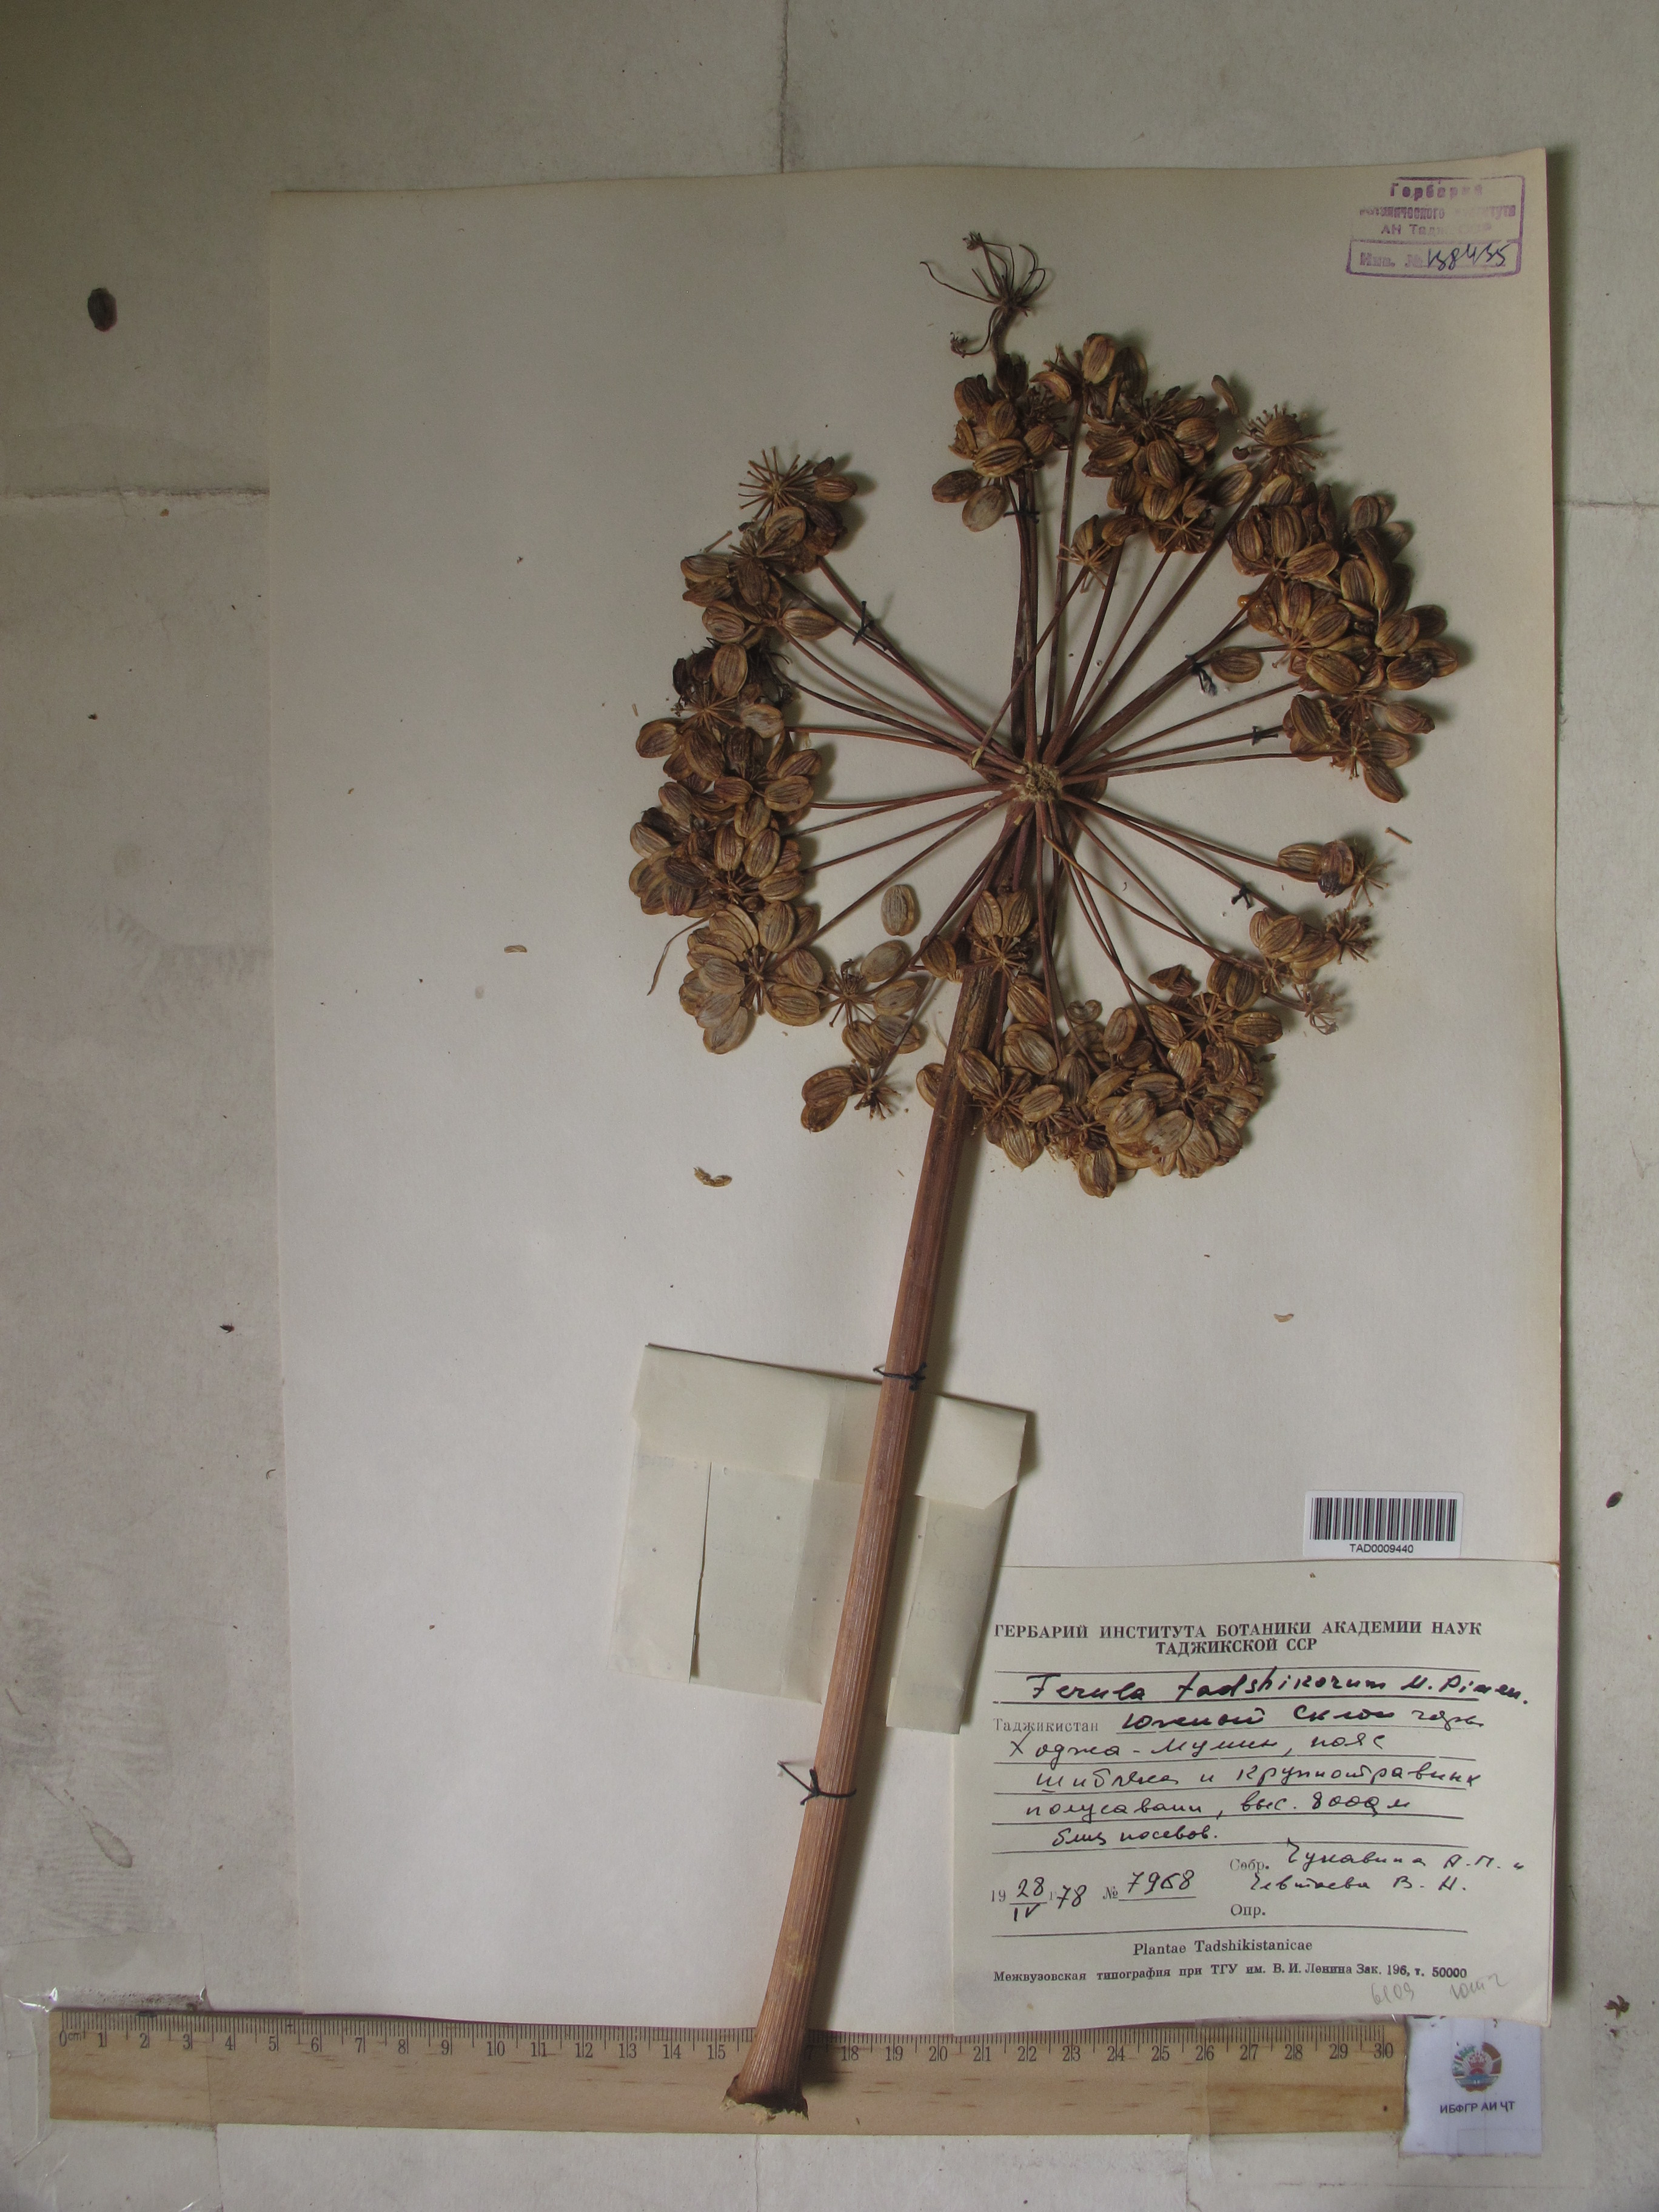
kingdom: Plantae
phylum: Tracheophyta
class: Magnoliopsida
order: Apiales
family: Apiaceae
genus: Ferula
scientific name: Ferula tadshikorum
